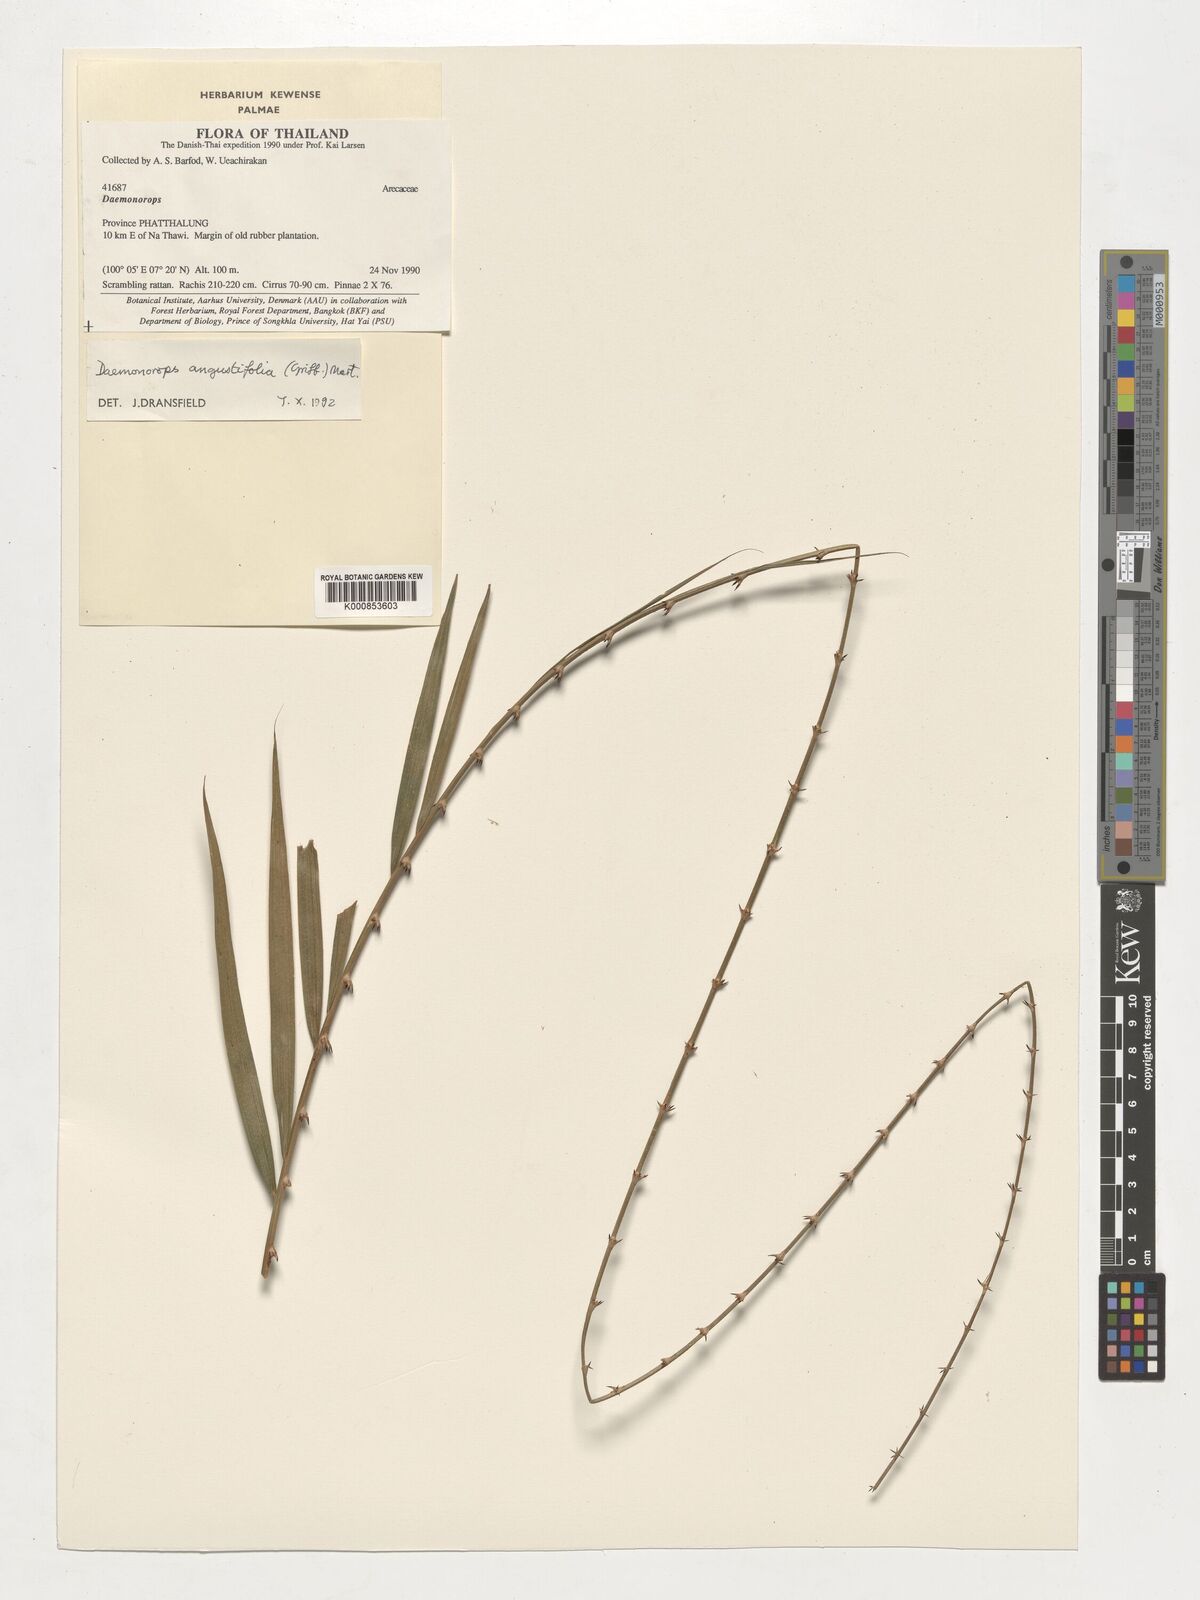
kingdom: Plantae
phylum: Tracheophyta
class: Liliopsida
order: Arecales
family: Arecaceae
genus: Calamus
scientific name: Calamus melanochaetes
